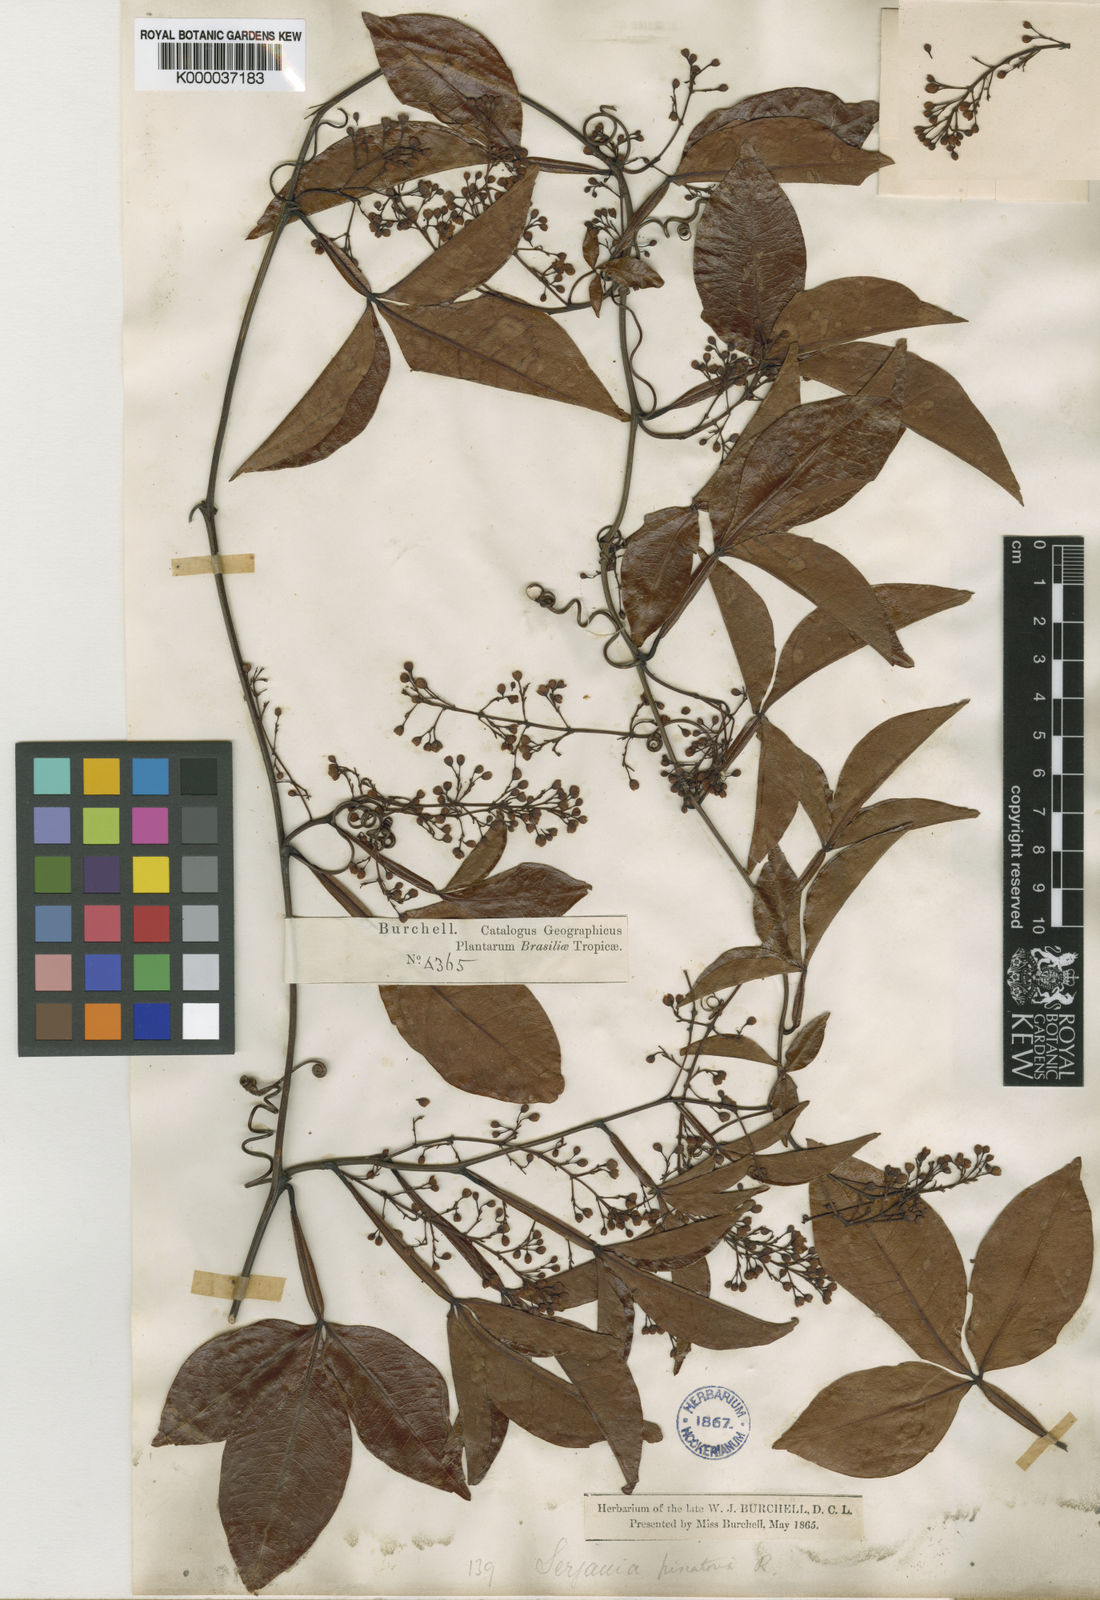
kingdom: Plantae
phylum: Tracheophyta
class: Magnoliopsida
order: Sapindales
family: Sapindaceae
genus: Serjania
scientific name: Serjania piscatoria
